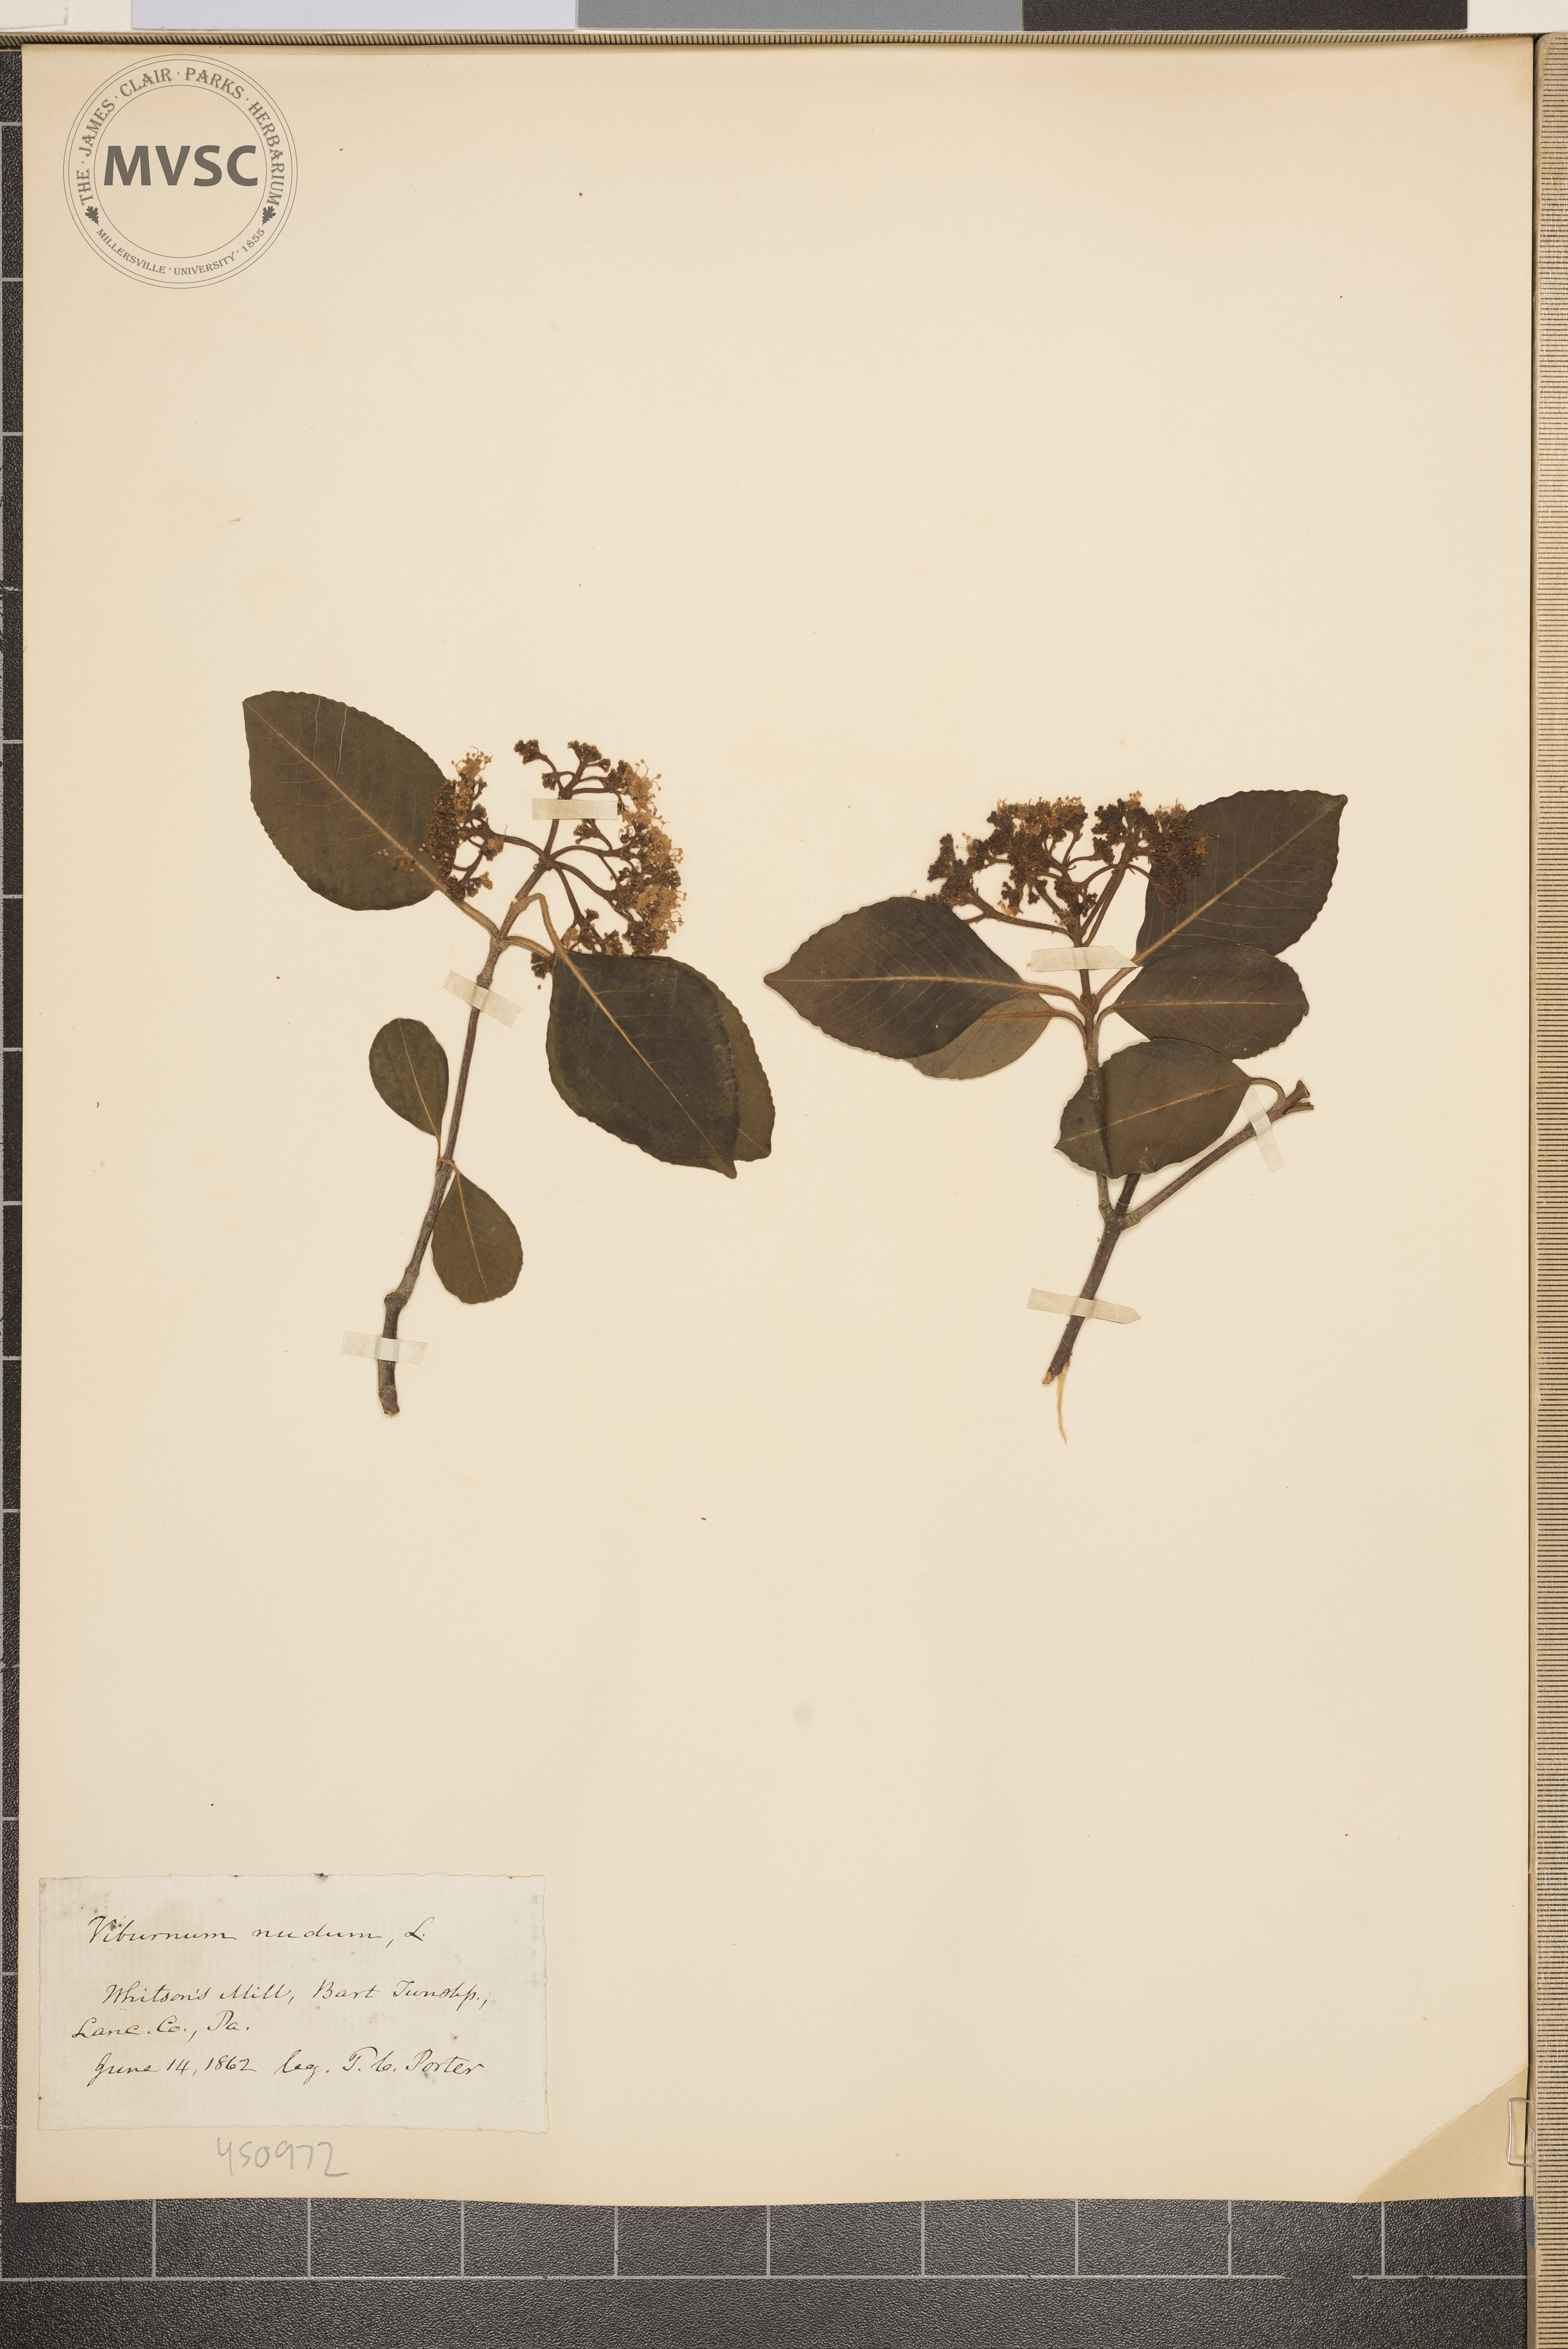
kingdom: Plantae
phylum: Tracheophyta
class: Magnoliopsida
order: Dipsacales
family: Viburnaceae
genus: Viburnum
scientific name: Viburnum nudum
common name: Possum haw
